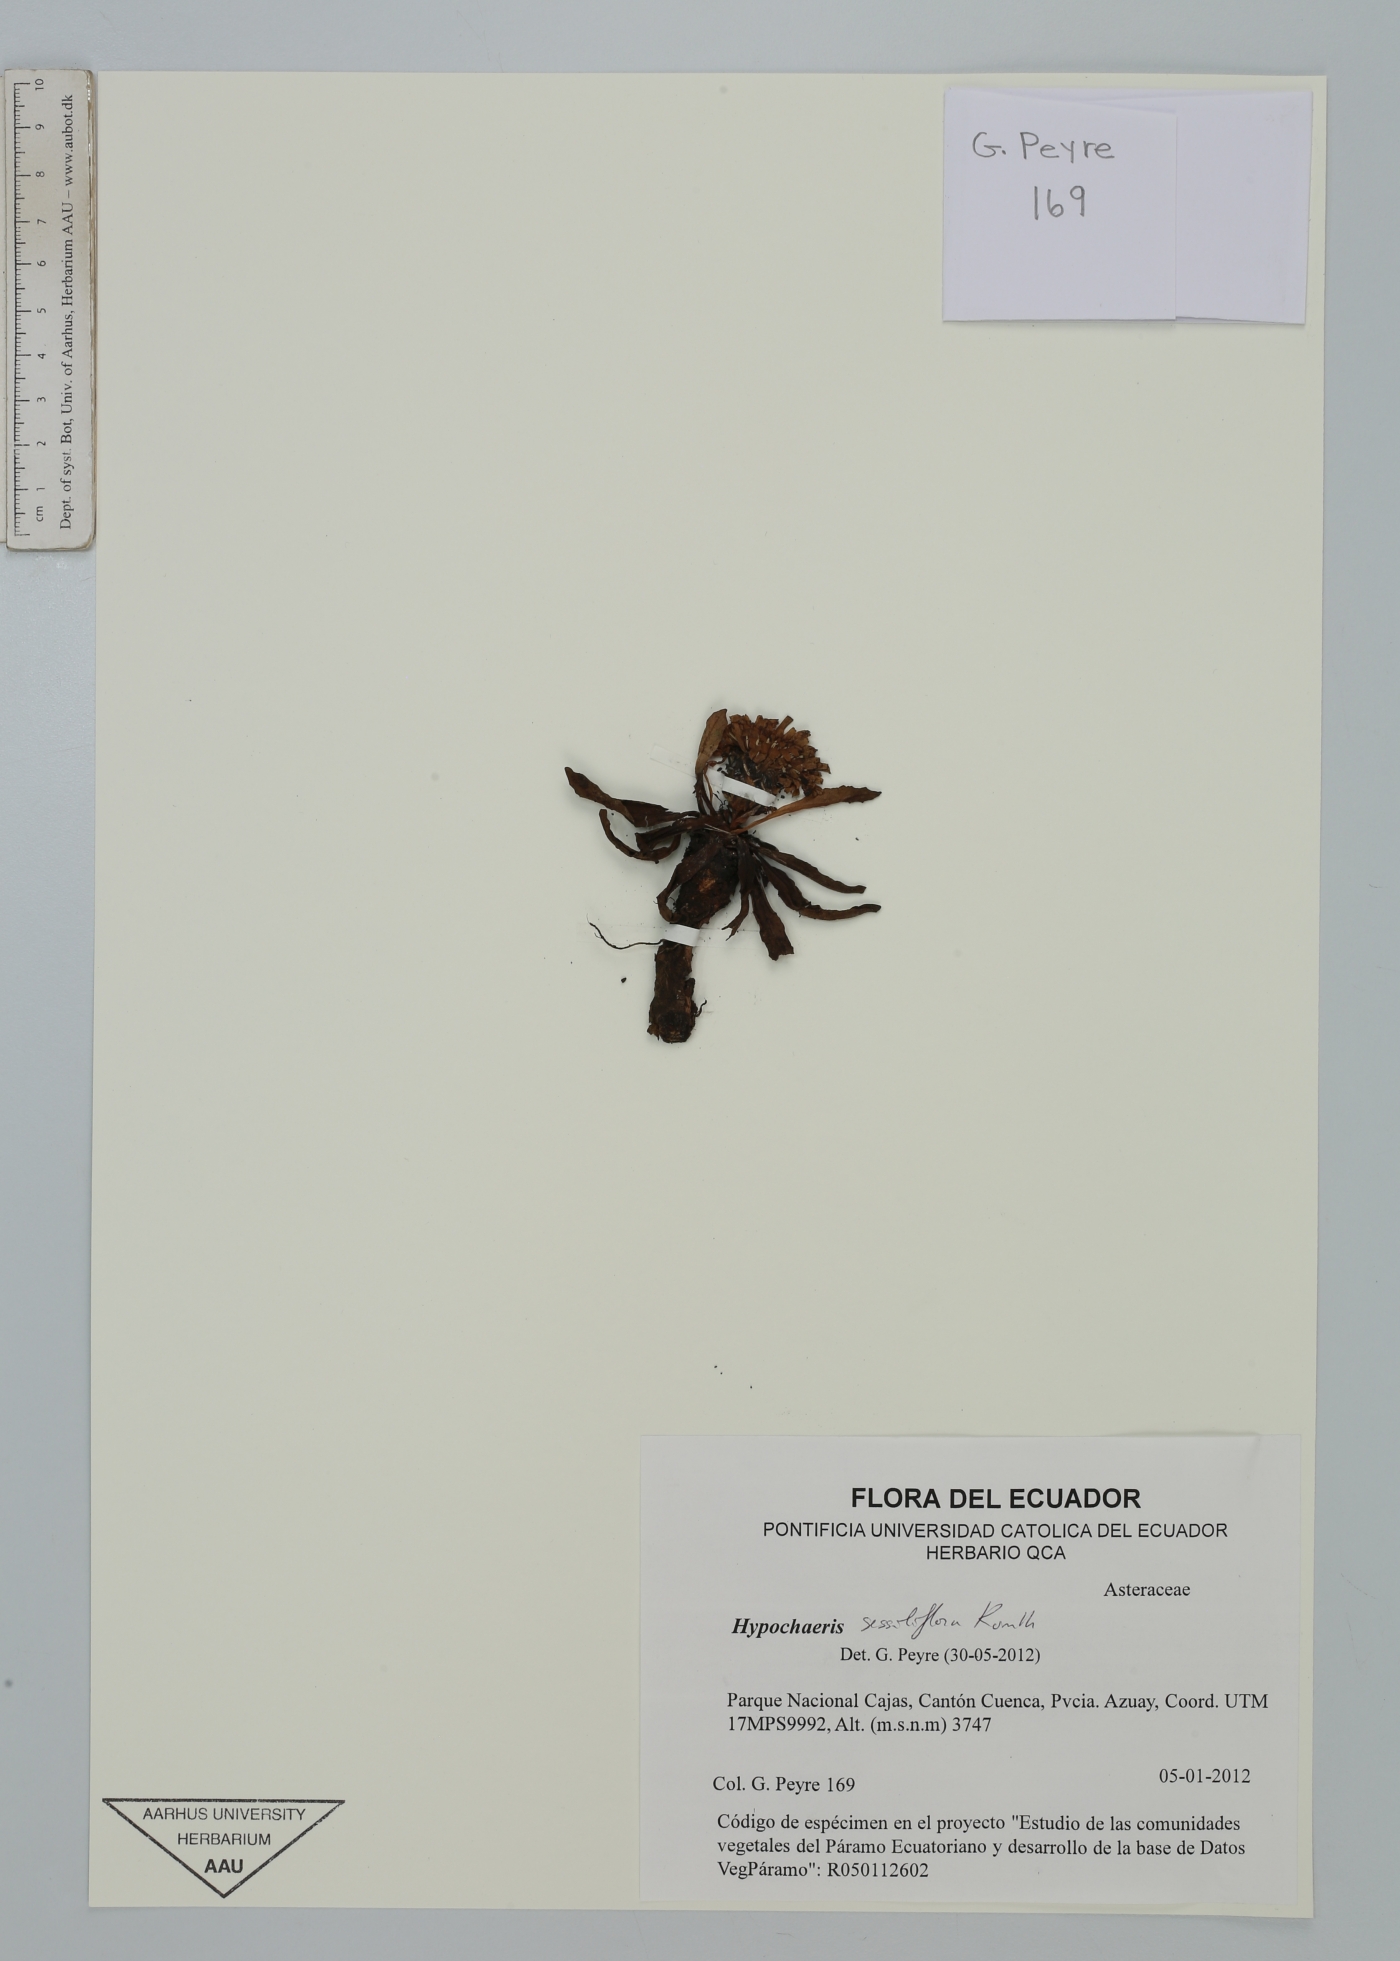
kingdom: Plantae
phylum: Tracheophyta
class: Magnoliopsida
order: Asterales
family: Asteraceae
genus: Hypochaeris
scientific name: Hypochaeris sessiliflora
